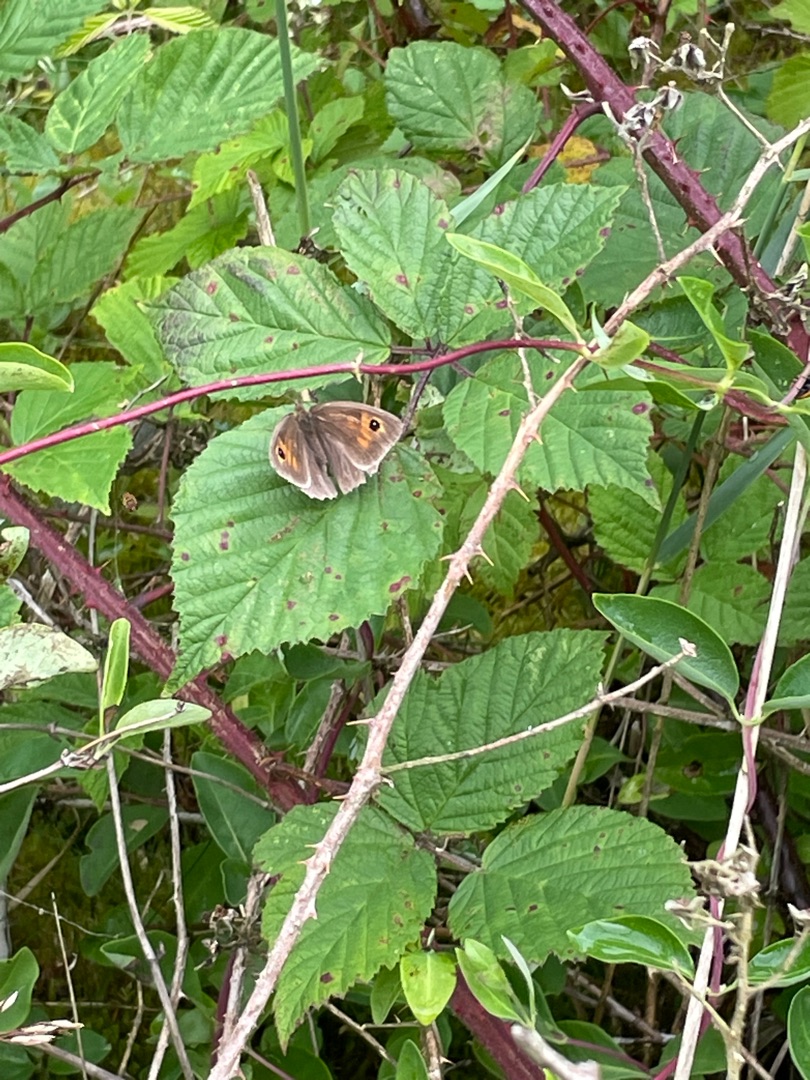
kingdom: Animalia
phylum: Arthropoda
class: Insecta
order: Lepidoptera
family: Nymphalidae
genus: Maniola
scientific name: Maniola jurtina
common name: Græsrandøje
